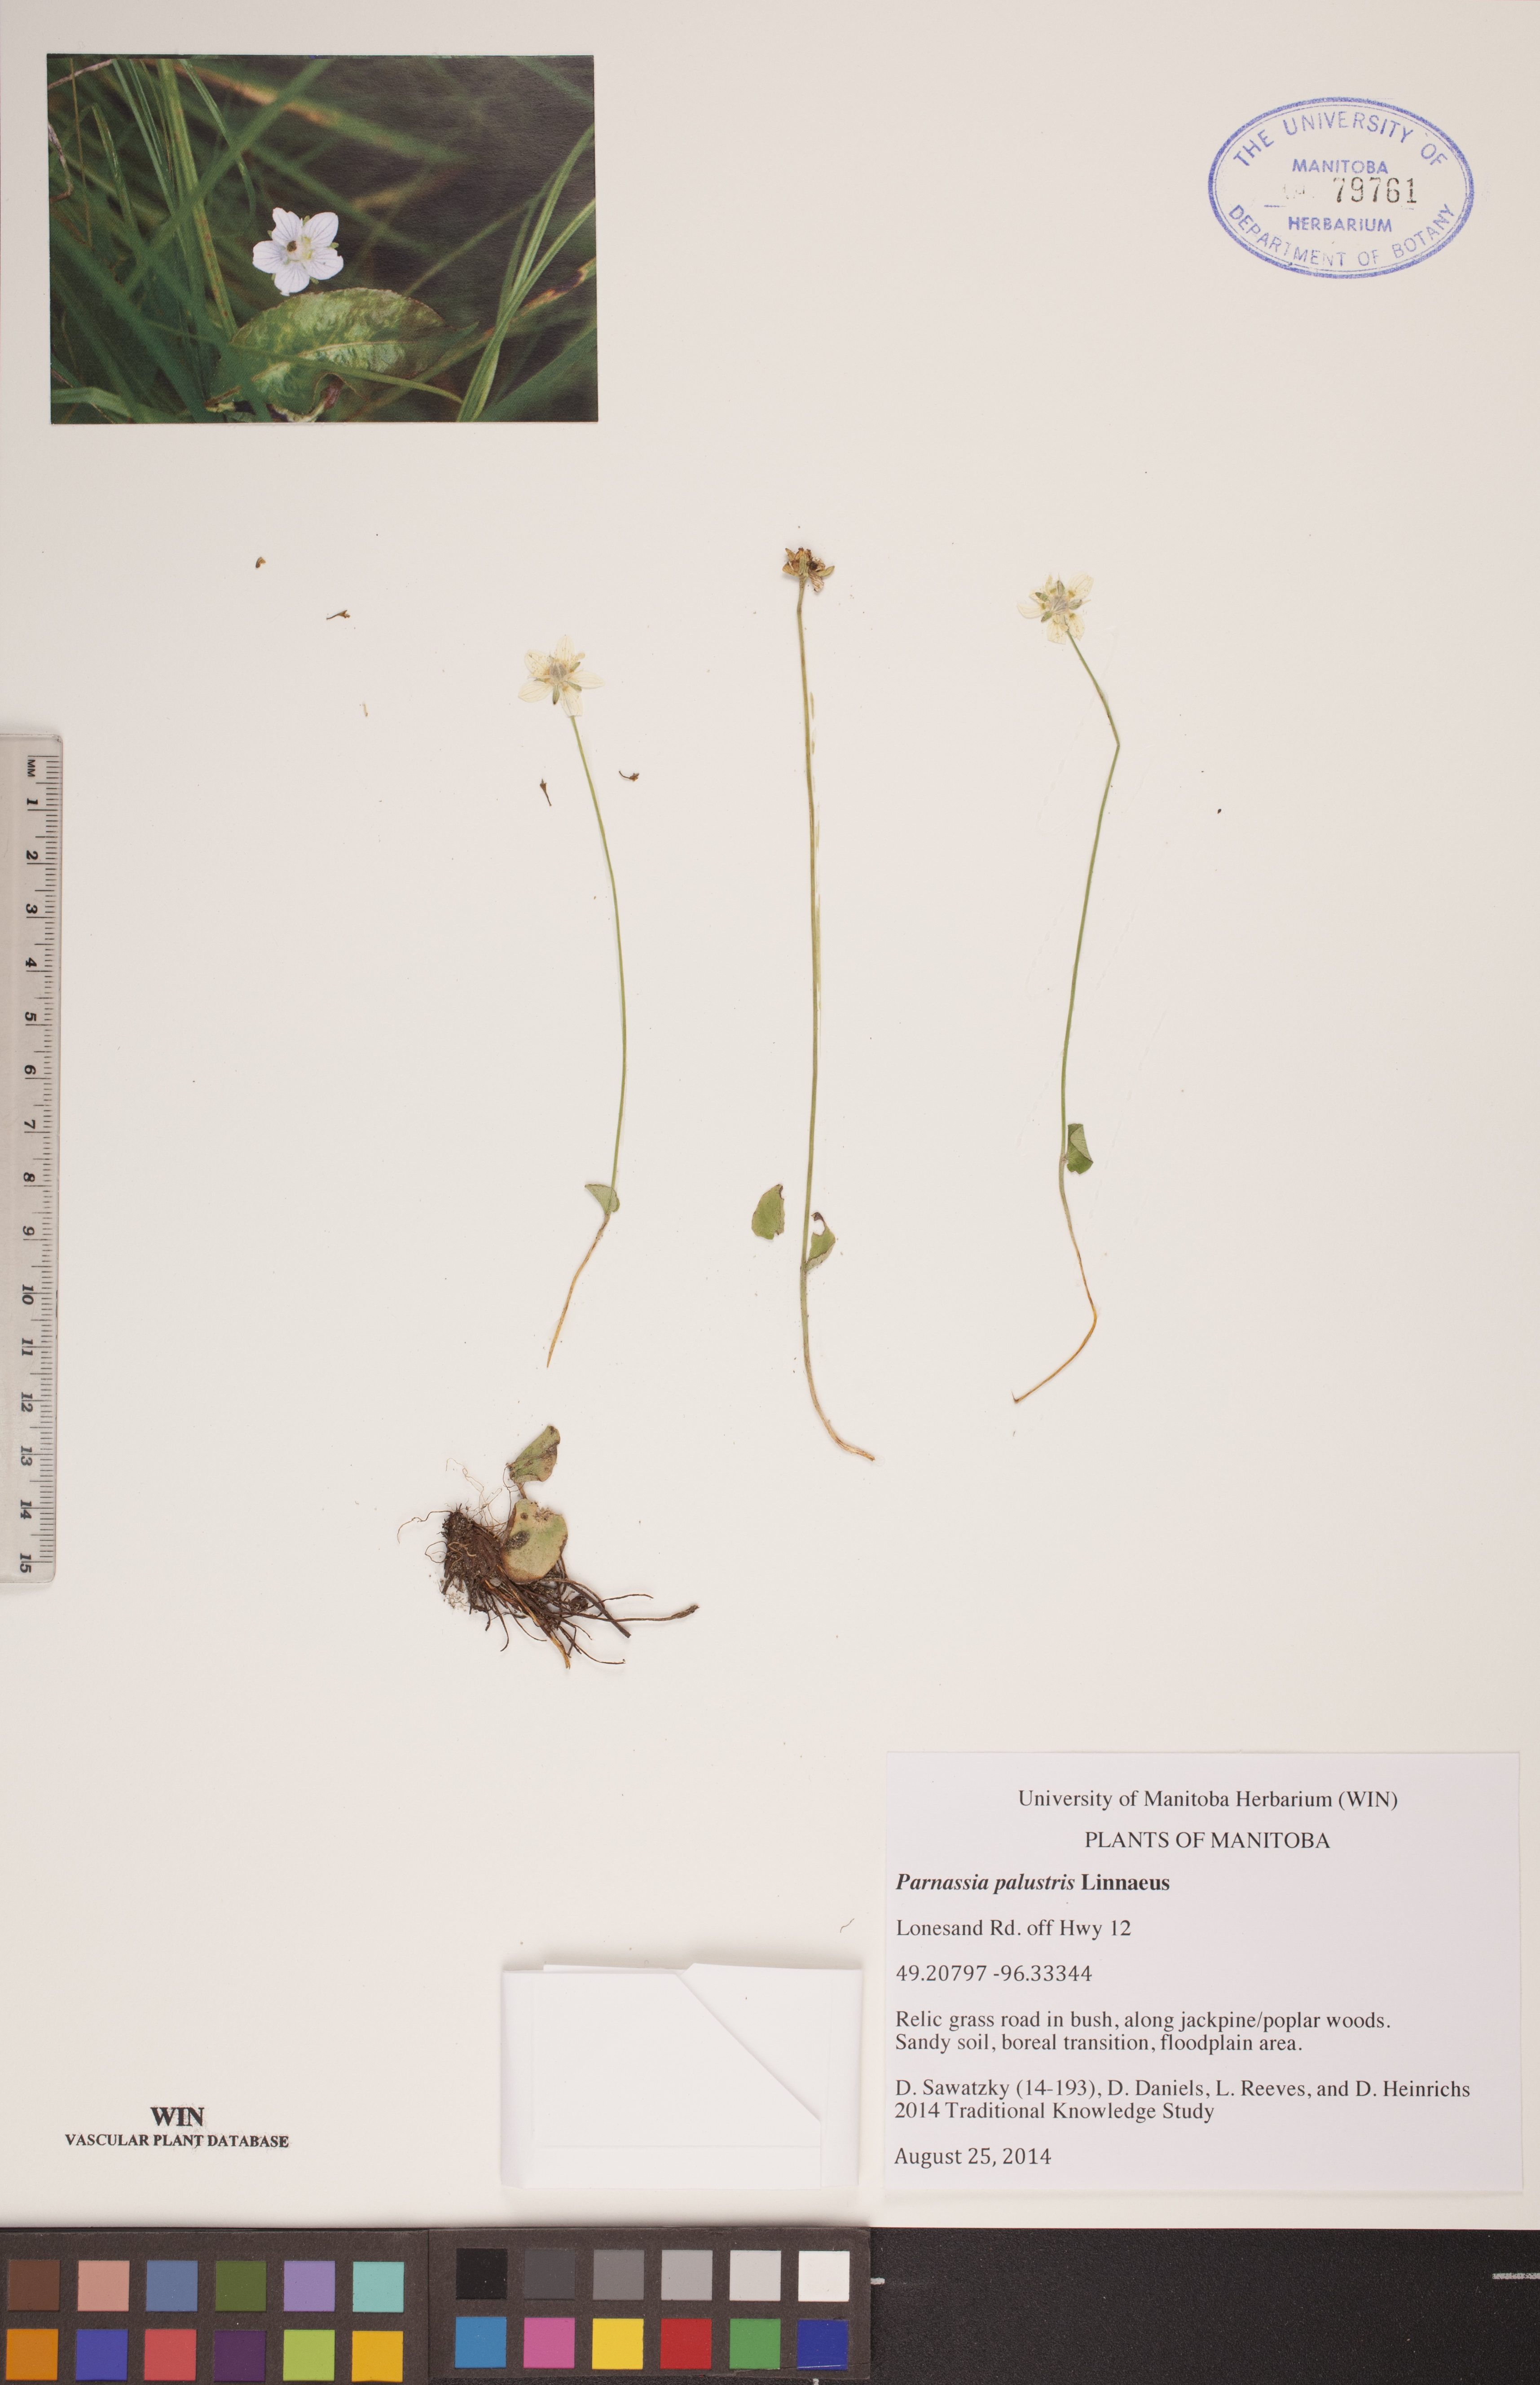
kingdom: Plantae
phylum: Tracheophyta
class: Magnoliopsida
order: Celastrales
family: Parnassiaceae
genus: Parnassia
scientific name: Parnassia palustris
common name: Grass-of-parnassus
